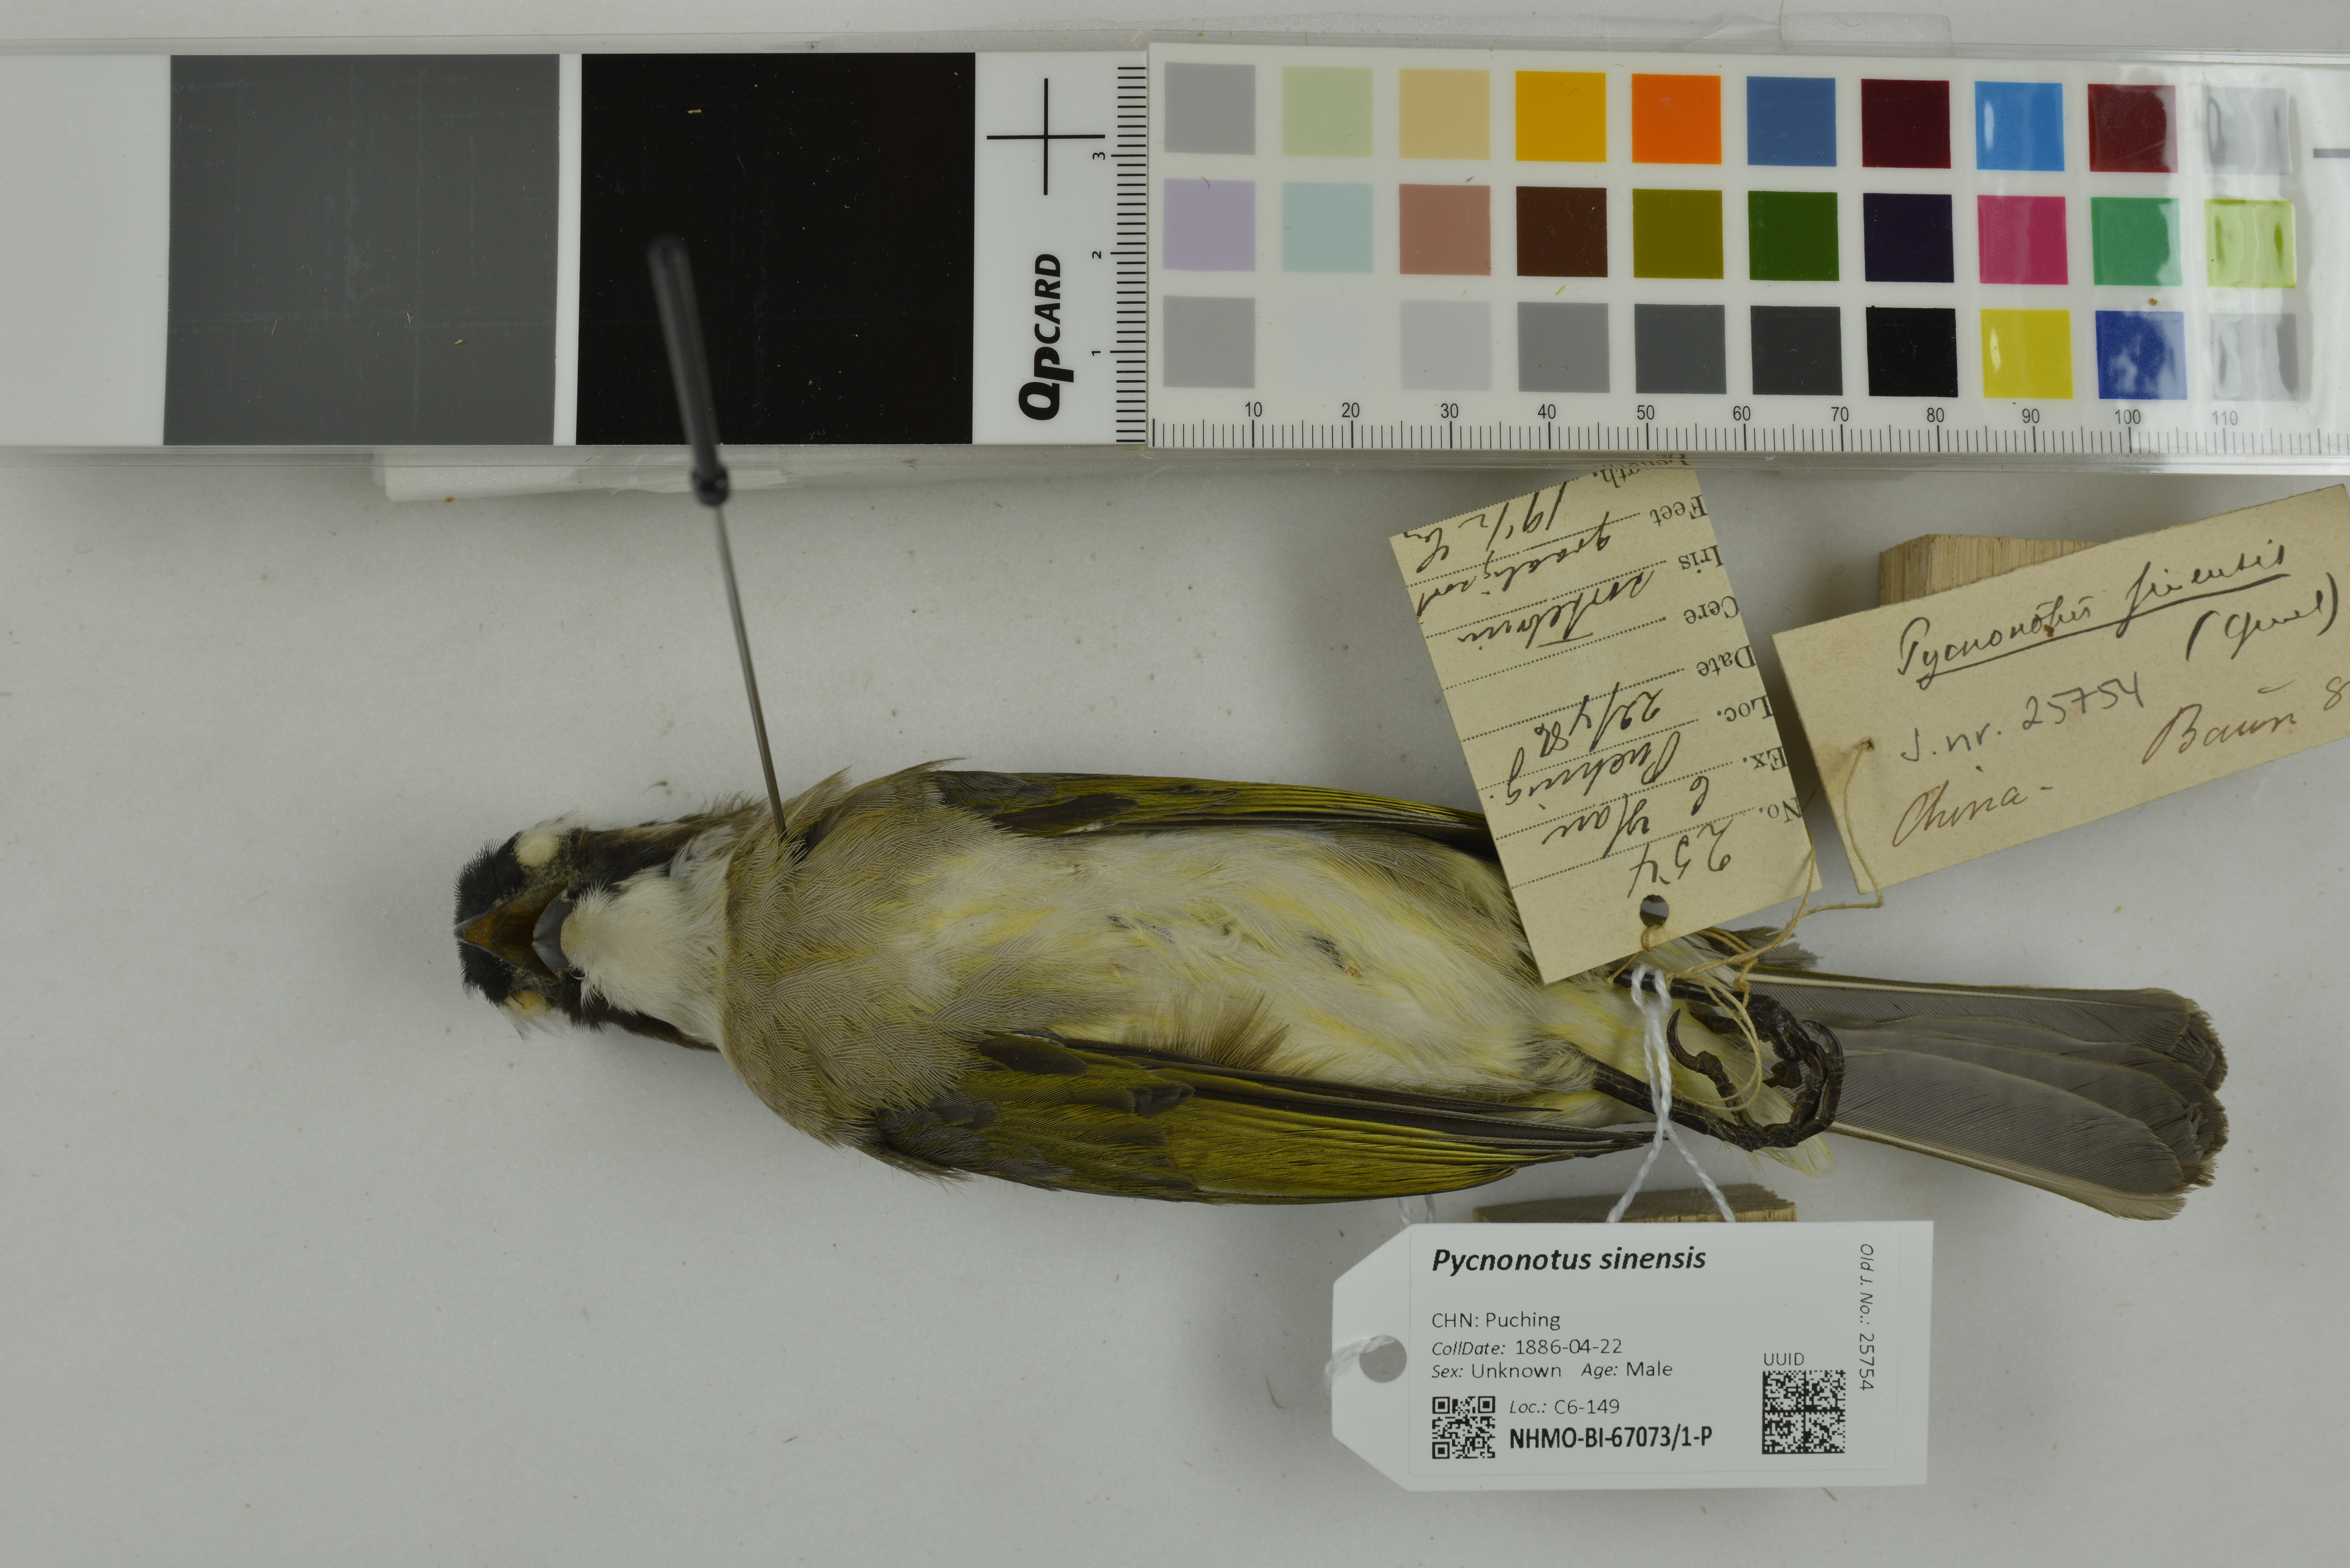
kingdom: Animalia
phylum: Chordata
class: Aves
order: Passeriformes
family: Pycnonotidae
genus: Pycnonotus
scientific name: Pycnonotus sinensis
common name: Light-vented bulbul
